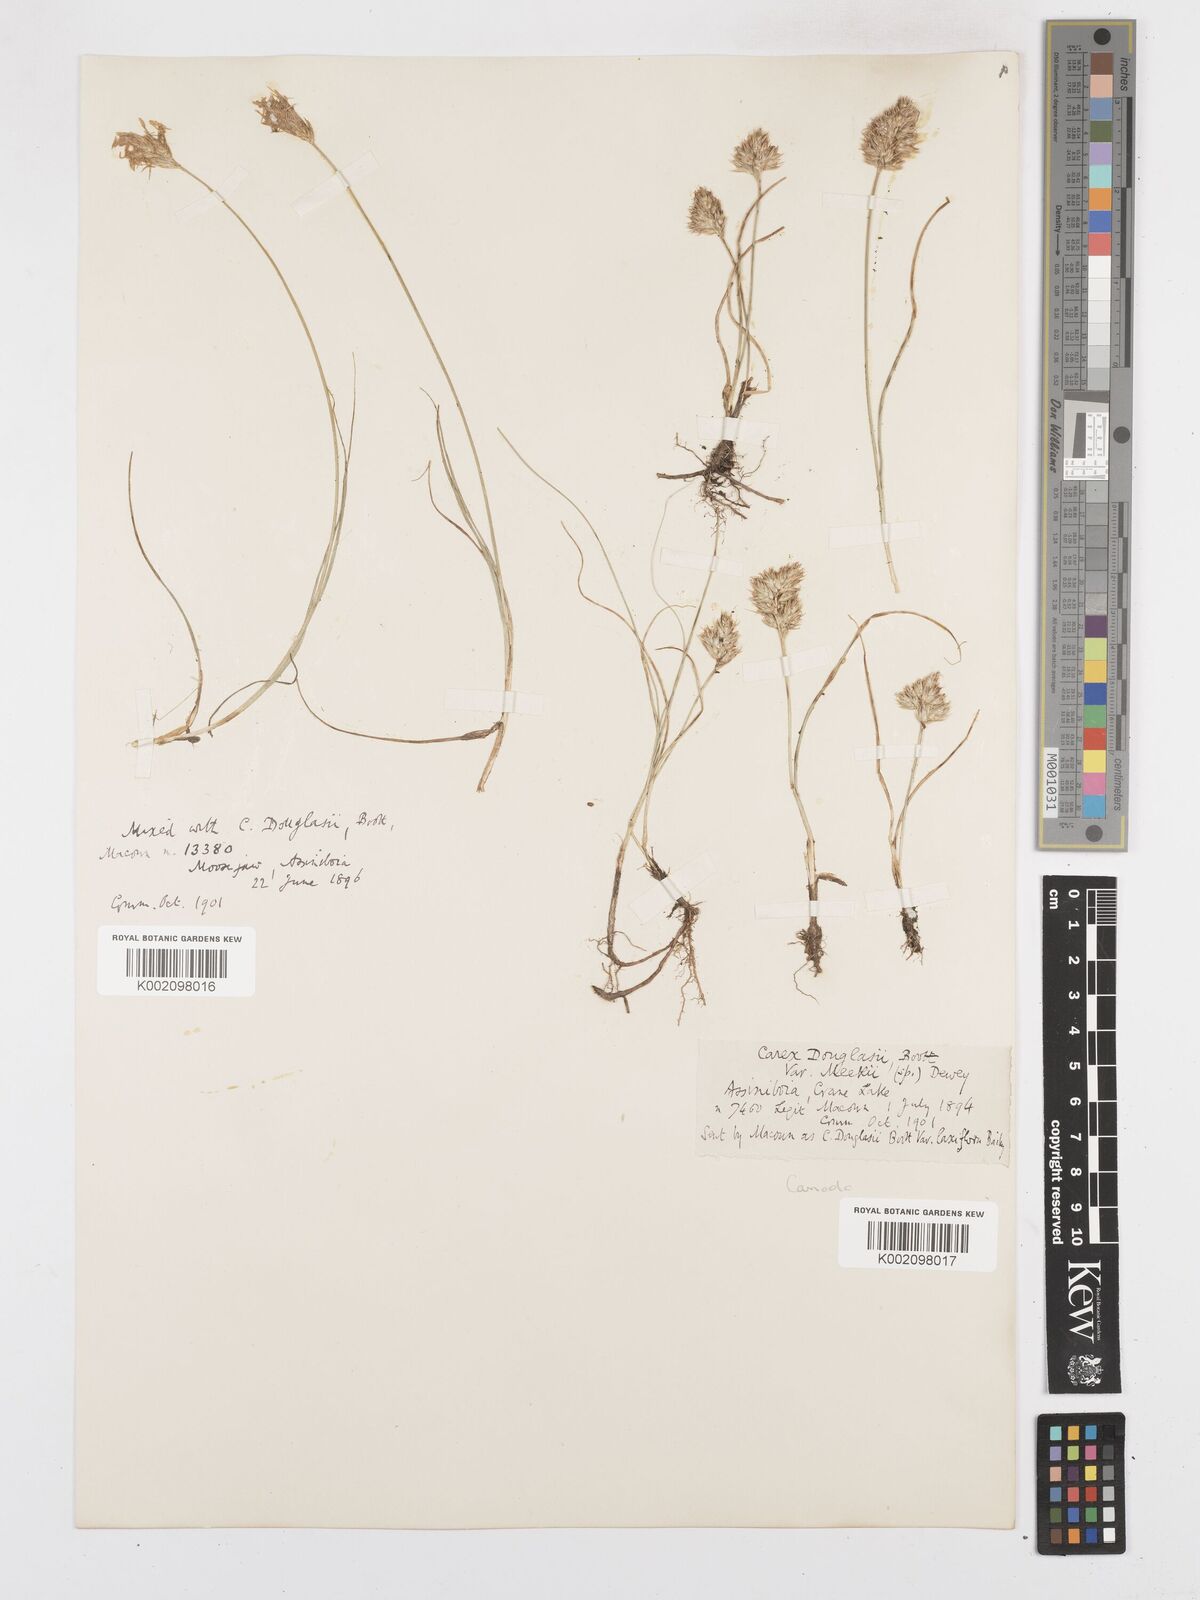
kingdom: Plantae
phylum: Tracheophyta
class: Liliopsida
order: Poales
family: Cyperaceae
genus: Carex
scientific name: Carex douglasii
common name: Douglas' sedge
